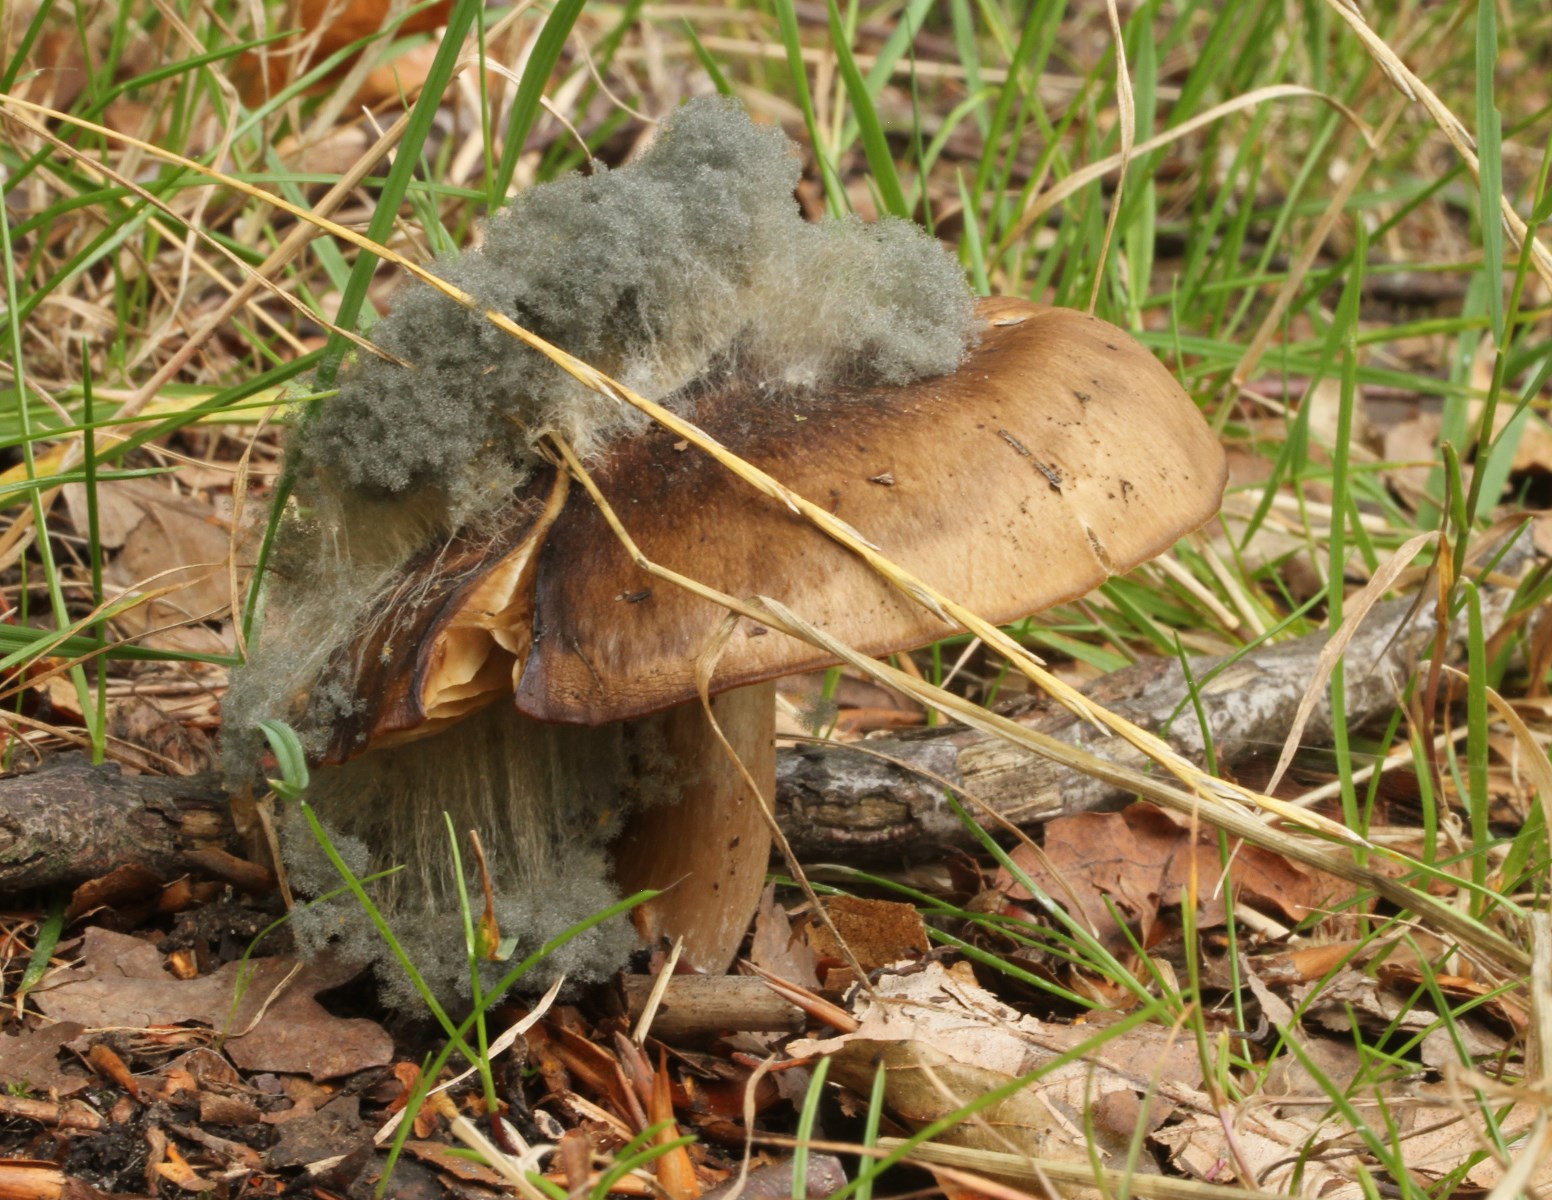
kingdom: Fungi
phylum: Mucoromycota
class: Mucoromycetes
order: Mucorales
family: Rhizopodaceae
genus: Syzygites
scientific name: Syzygites megalocarpus
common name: nissenål
